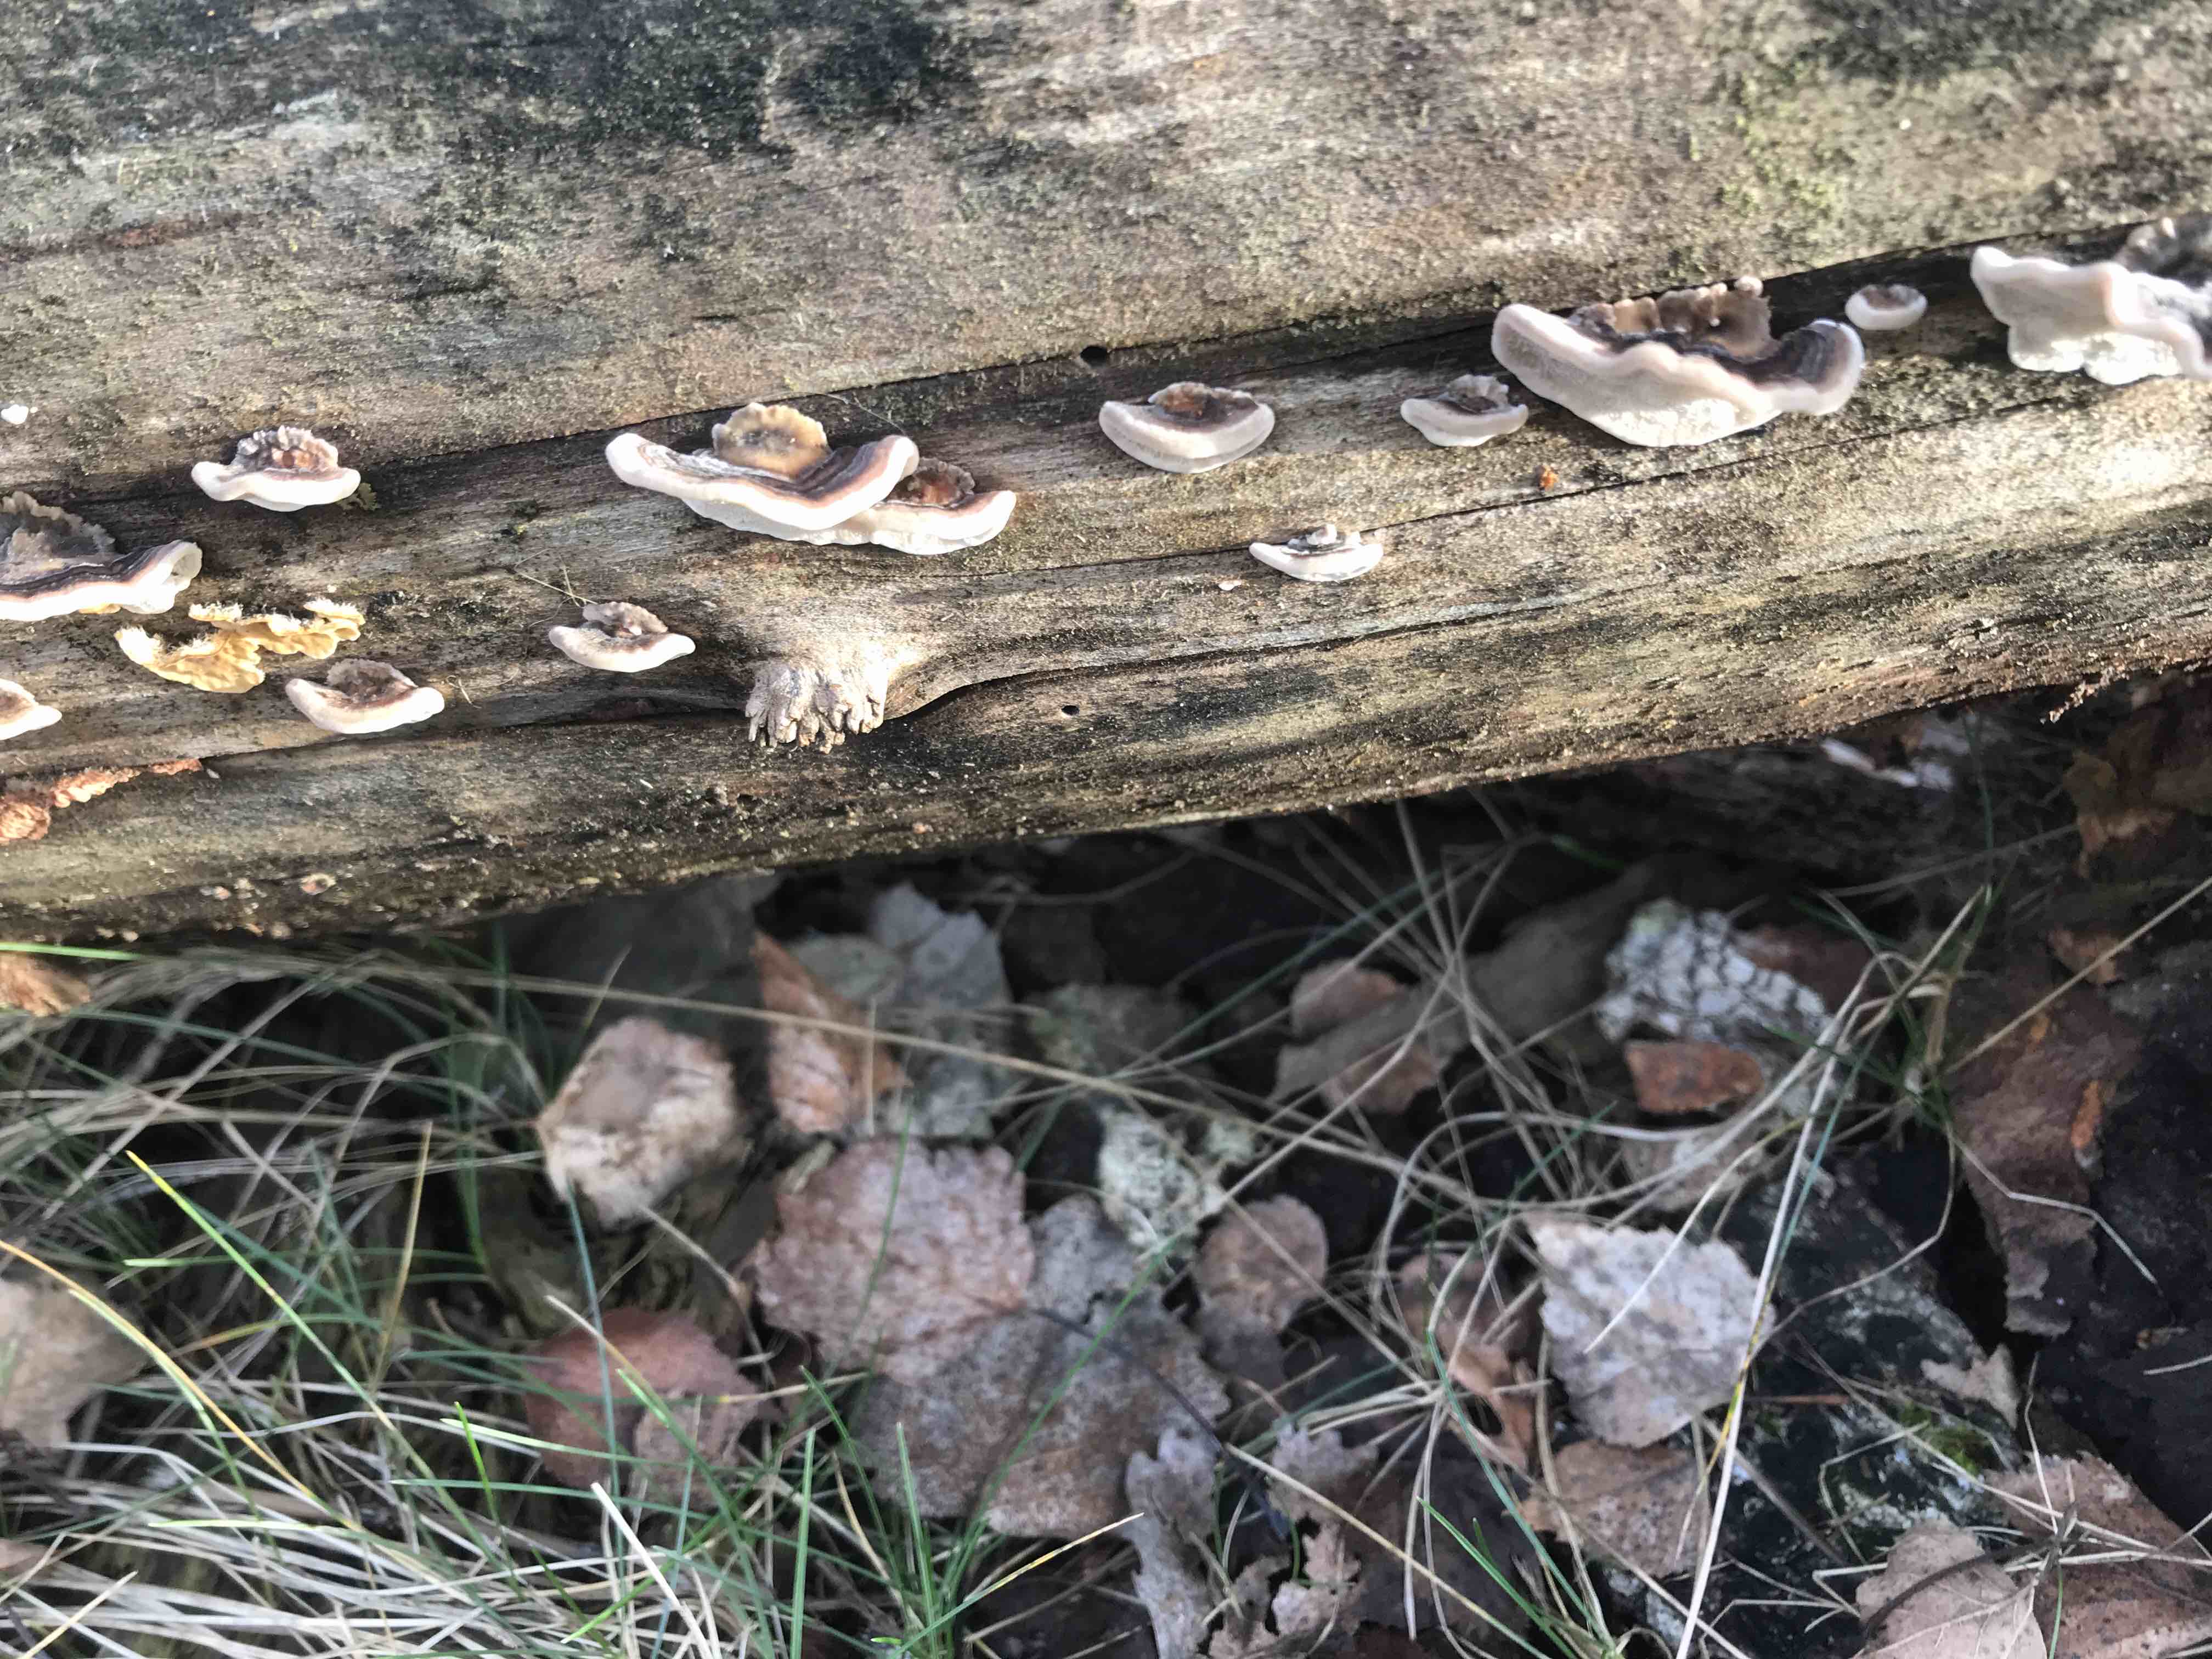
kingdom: Fungi
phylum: Basidiomycota
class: Agaricomycetes
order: Polyporales
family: Polyporaceae
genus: Trametes
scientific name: Trametes versicolor
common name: broget læderporesvamp
